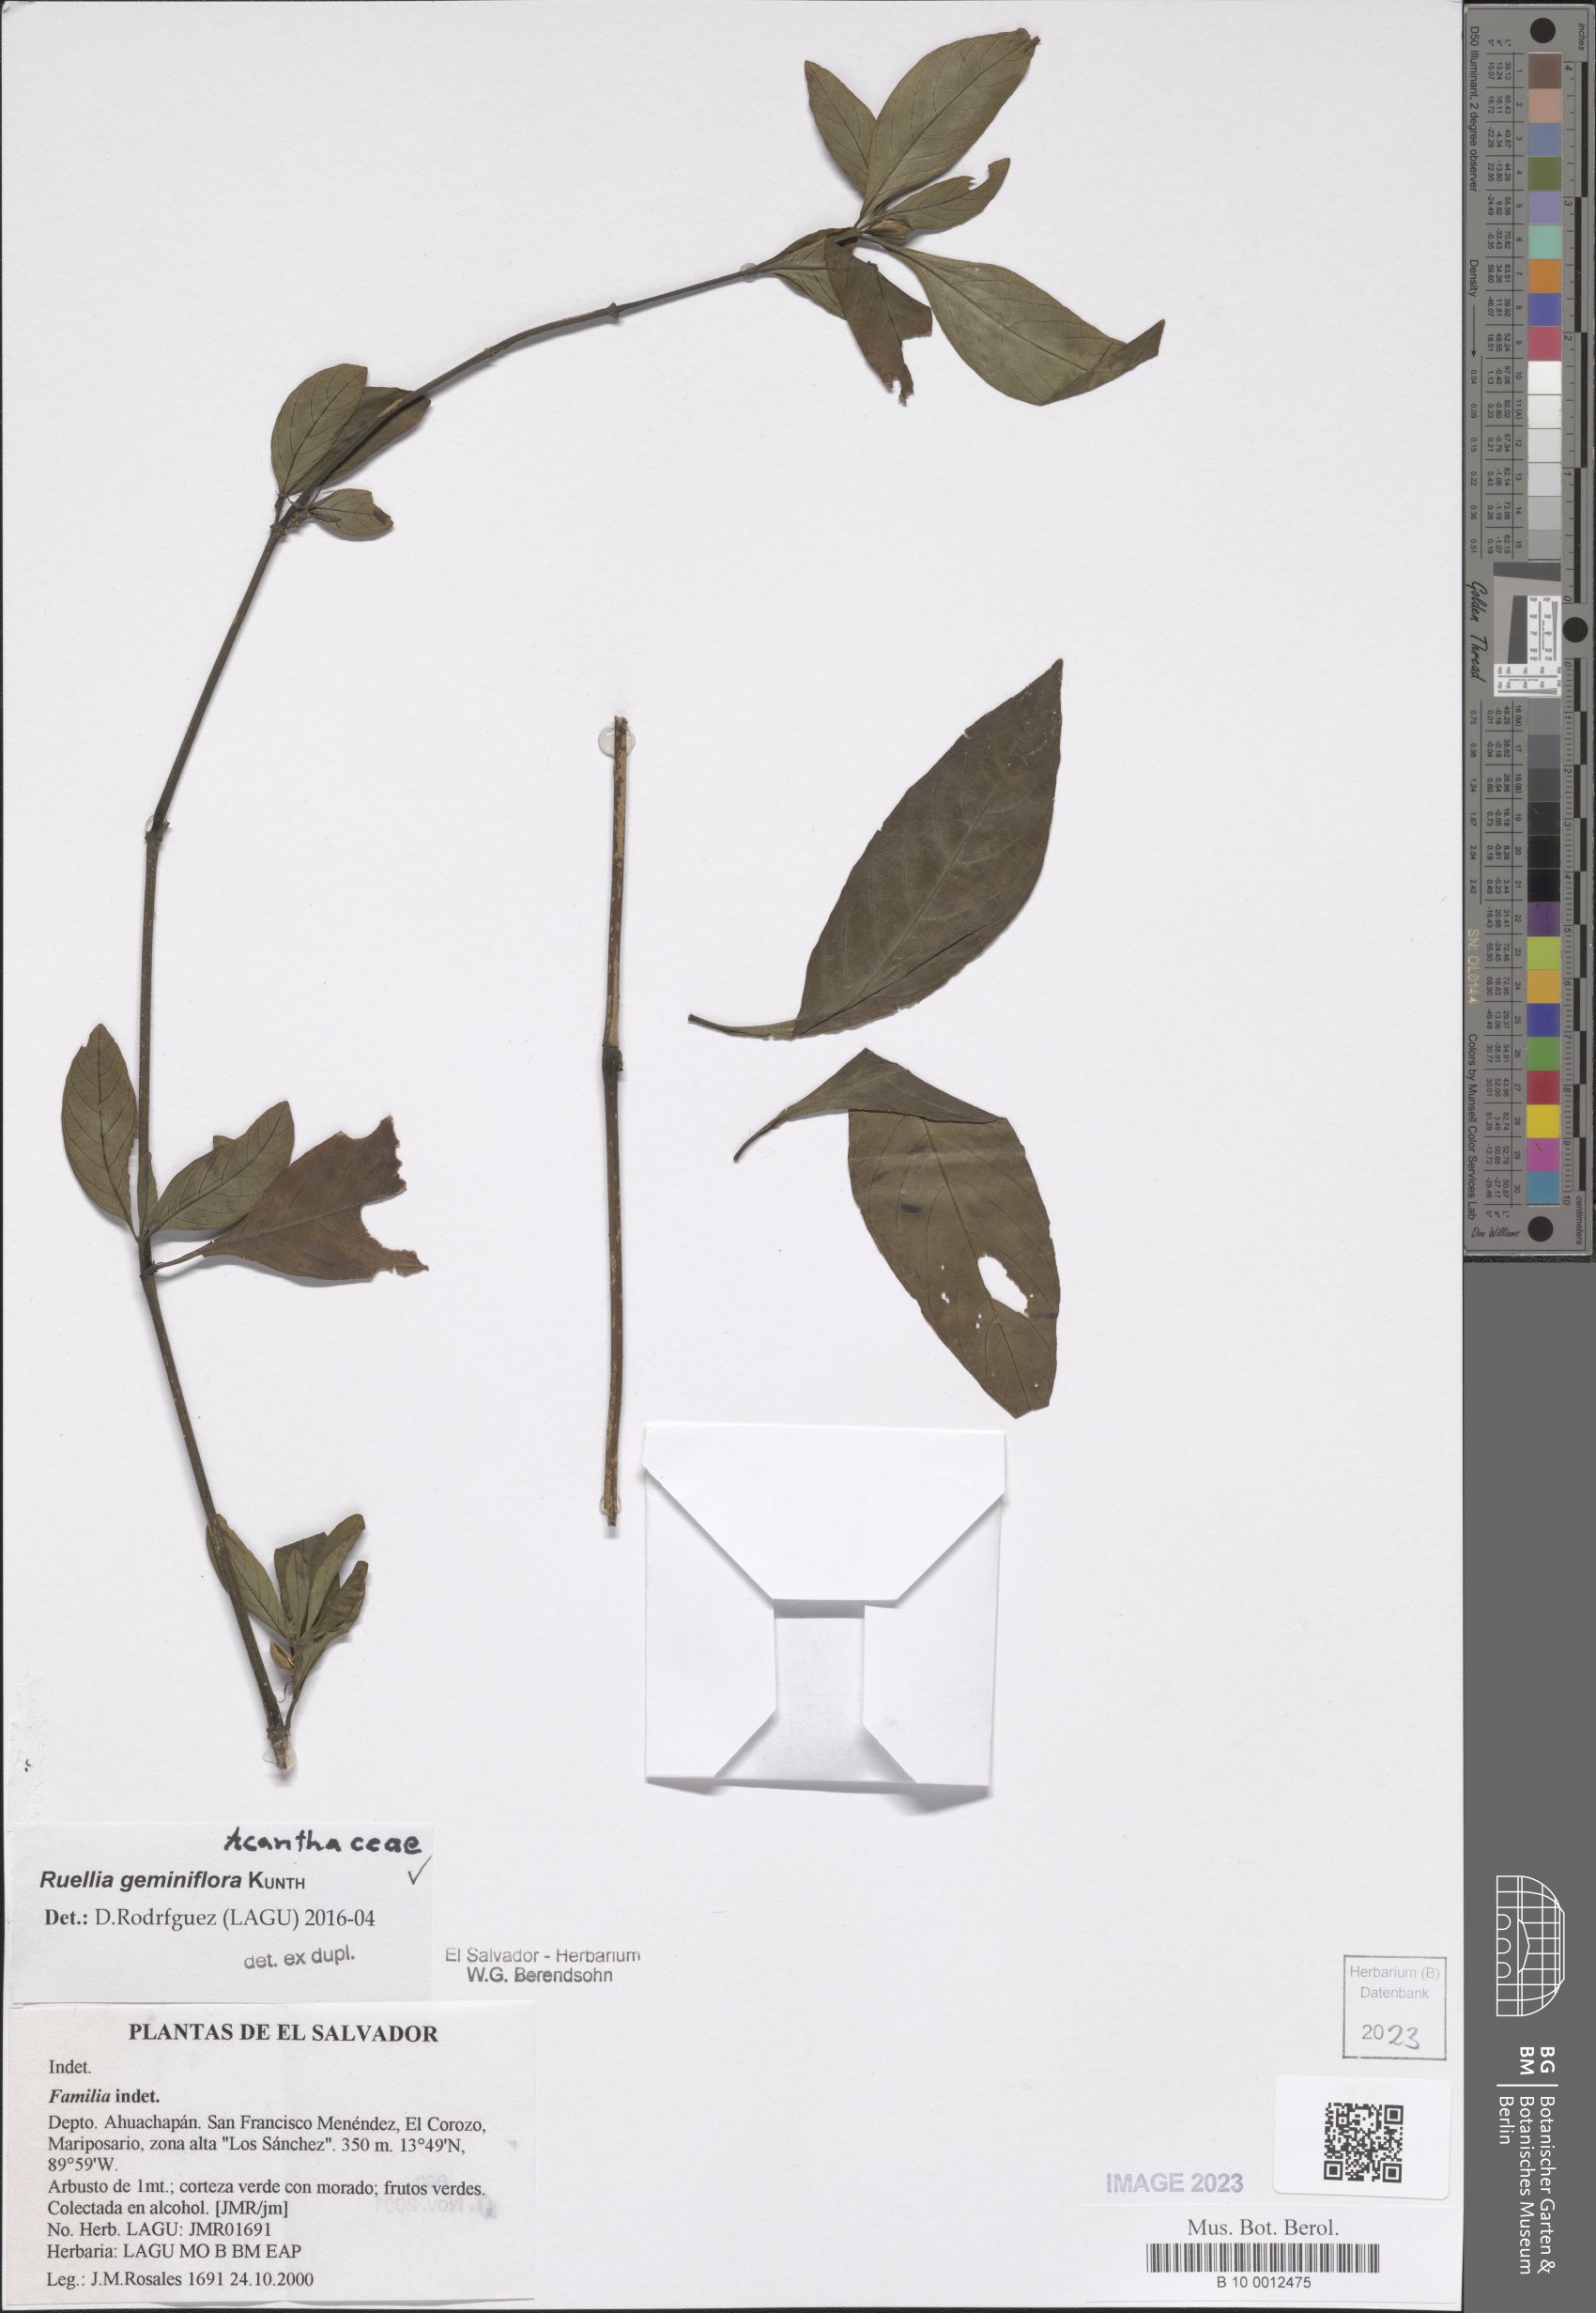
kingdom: Plantae
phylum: Tracheophyta
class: Magnoliopsida
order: Lamiales
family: Acanthaceae
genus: Ruellia
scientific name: Ruellia geminiflora
